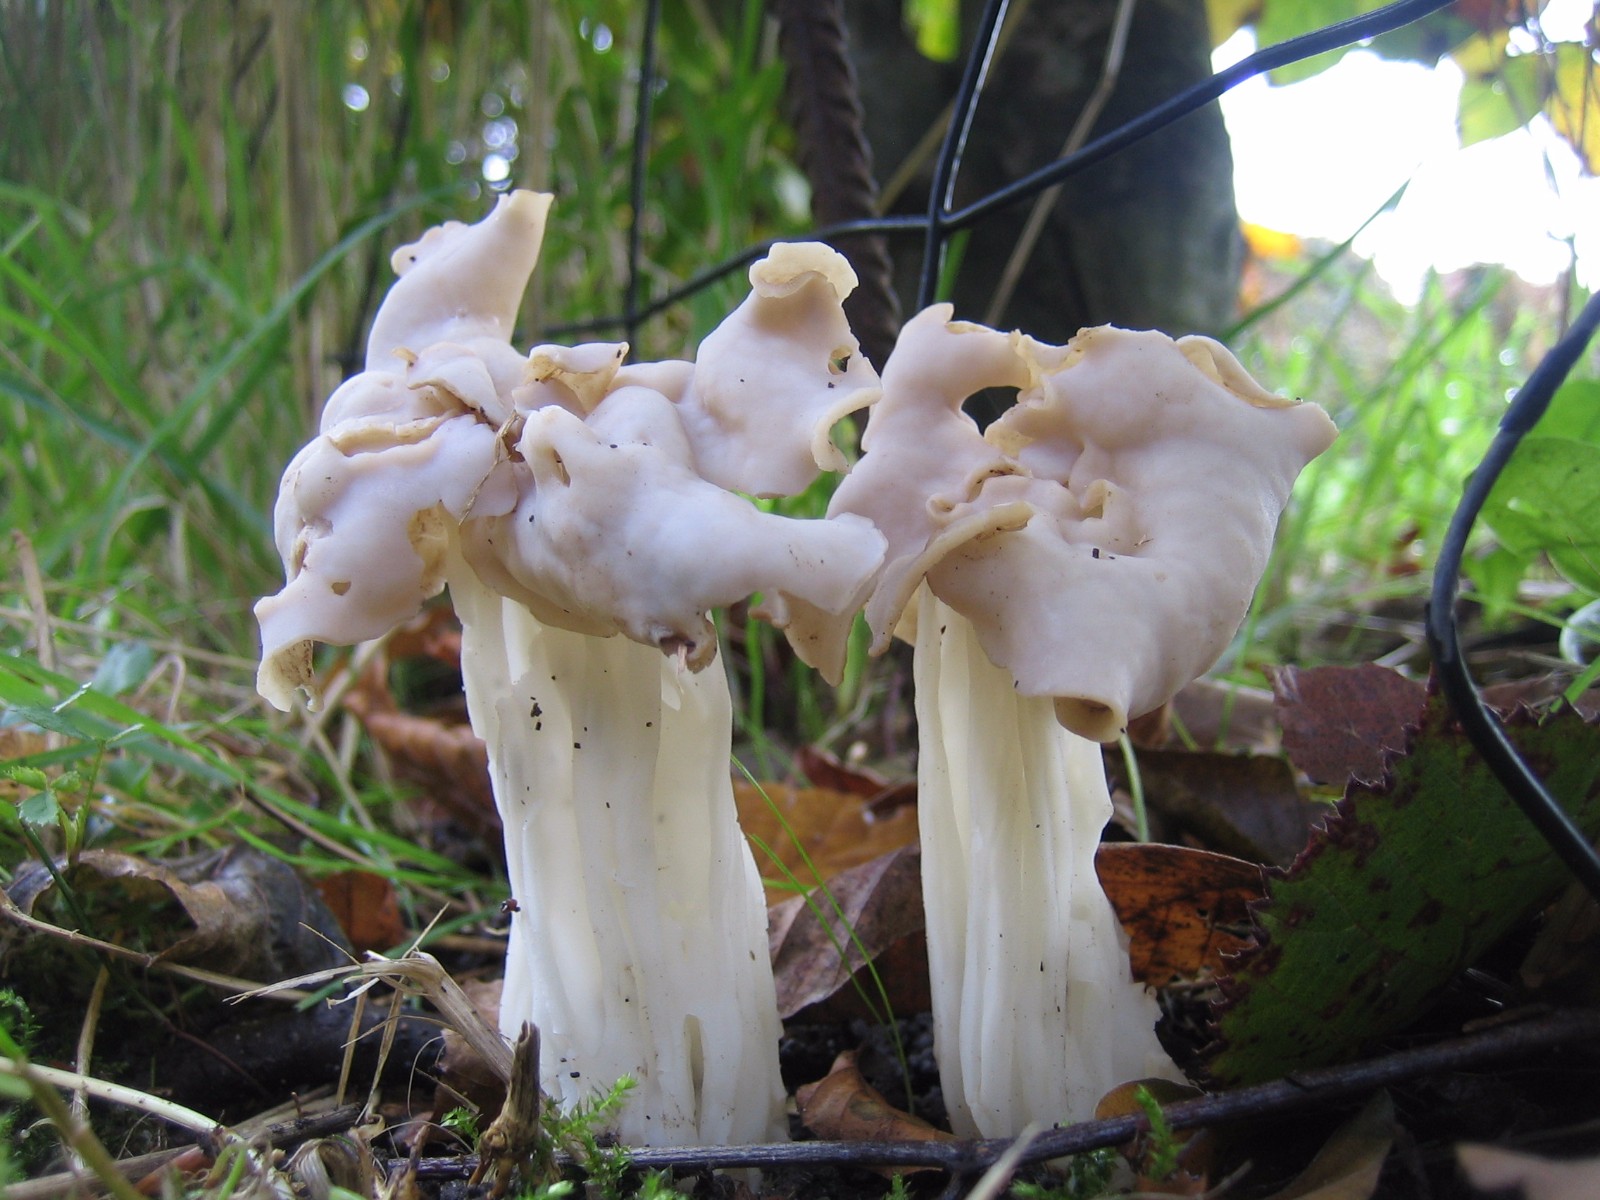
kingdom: Fungi
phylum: Ascomycota
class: Pezizomycetes
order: Pezizales
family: Helvellaceae
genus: Helvella
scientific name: Helvella crispa
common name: kruset foldhat
